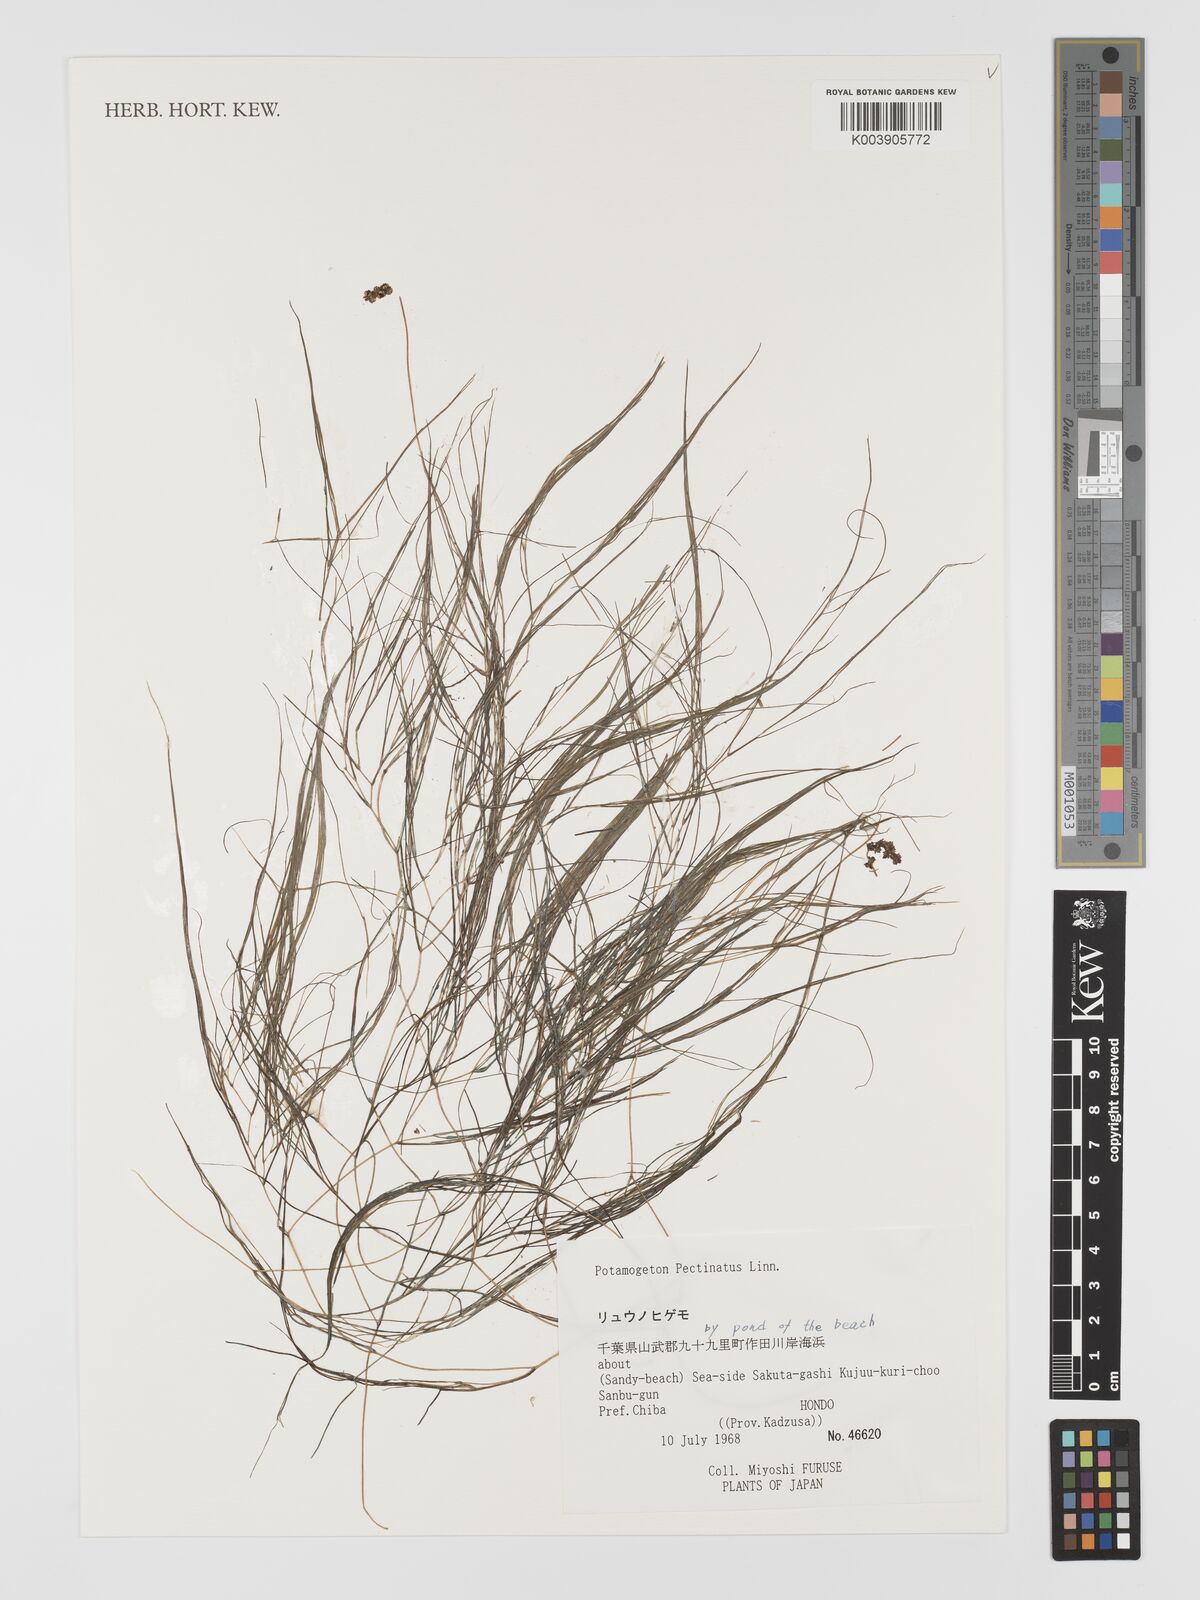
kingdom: Plantae
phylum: Tracheophyta
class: Liliopsida
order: Alismatales
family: Potamogetonaceae
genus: Stuckenia
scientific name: Stuckenia pectinata
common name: Sago pondweed
